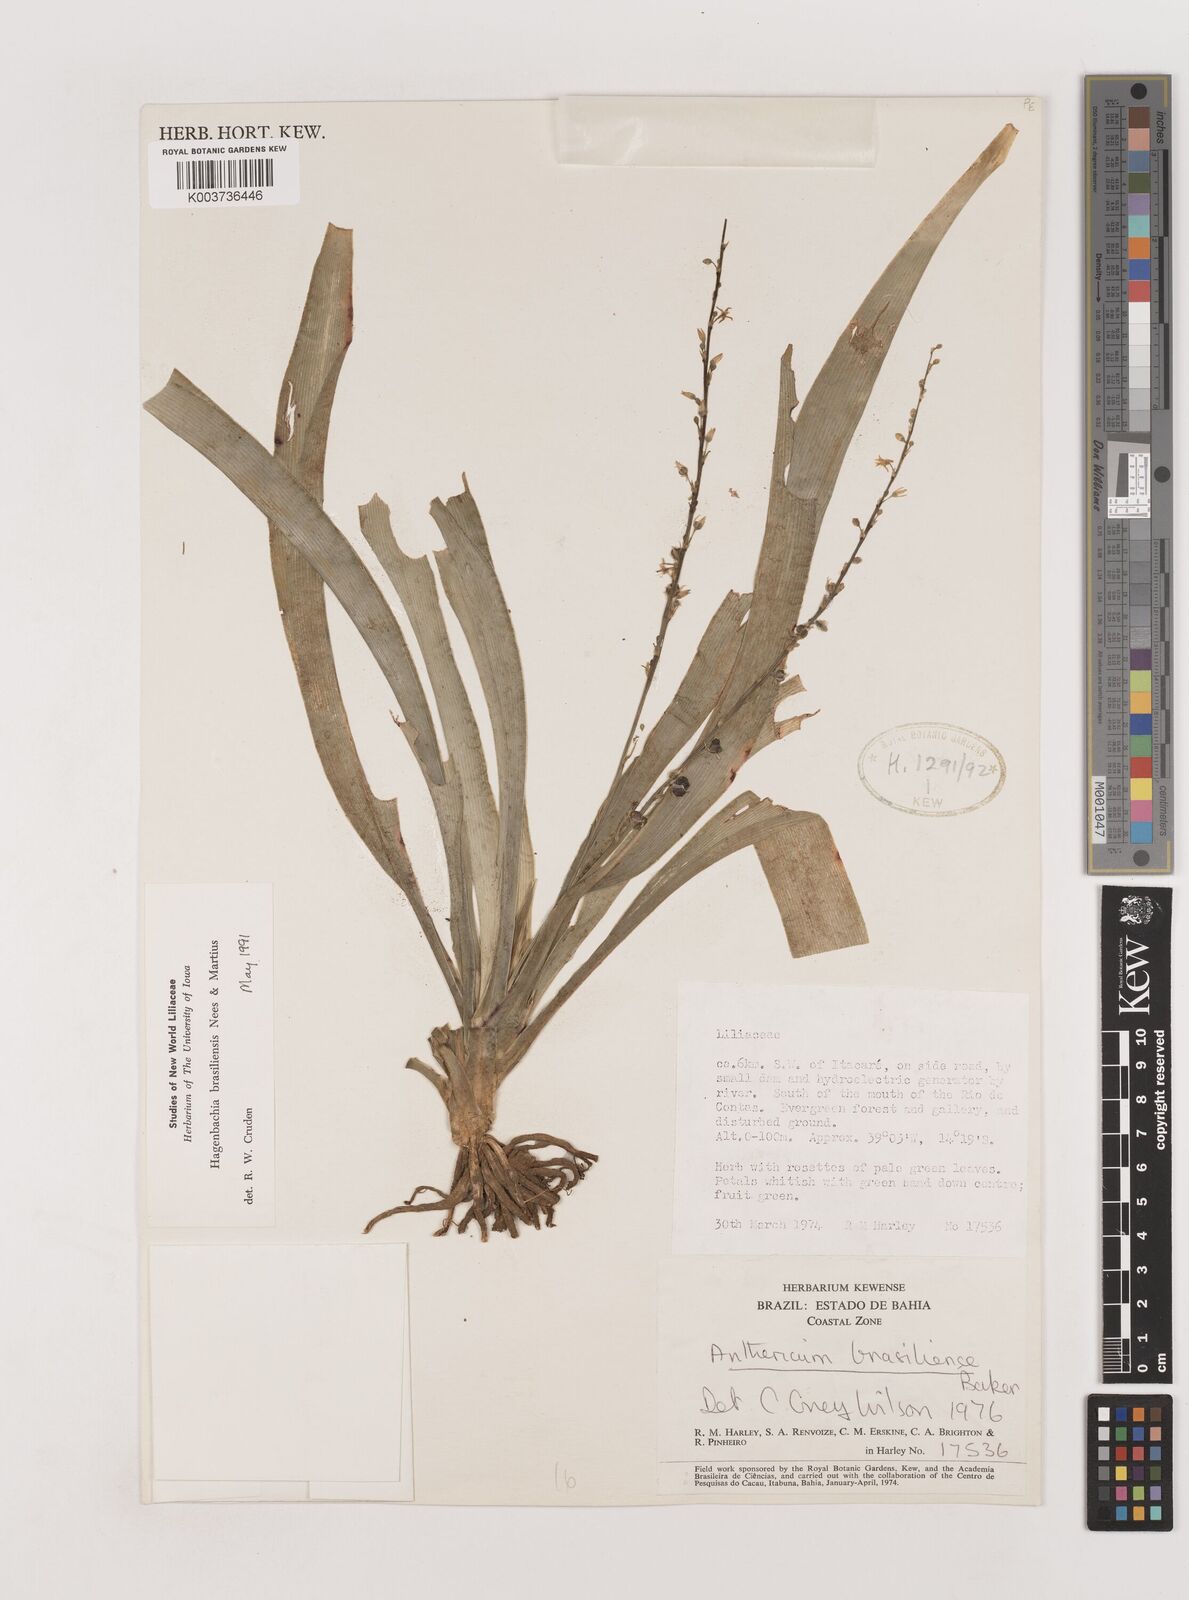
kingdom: Plantae
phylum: Tracheophyta
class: Liliopsida
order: Asparagales
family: Asparagaceae
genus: Hagenbachia
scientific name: Hagenbachia brasiliensis
